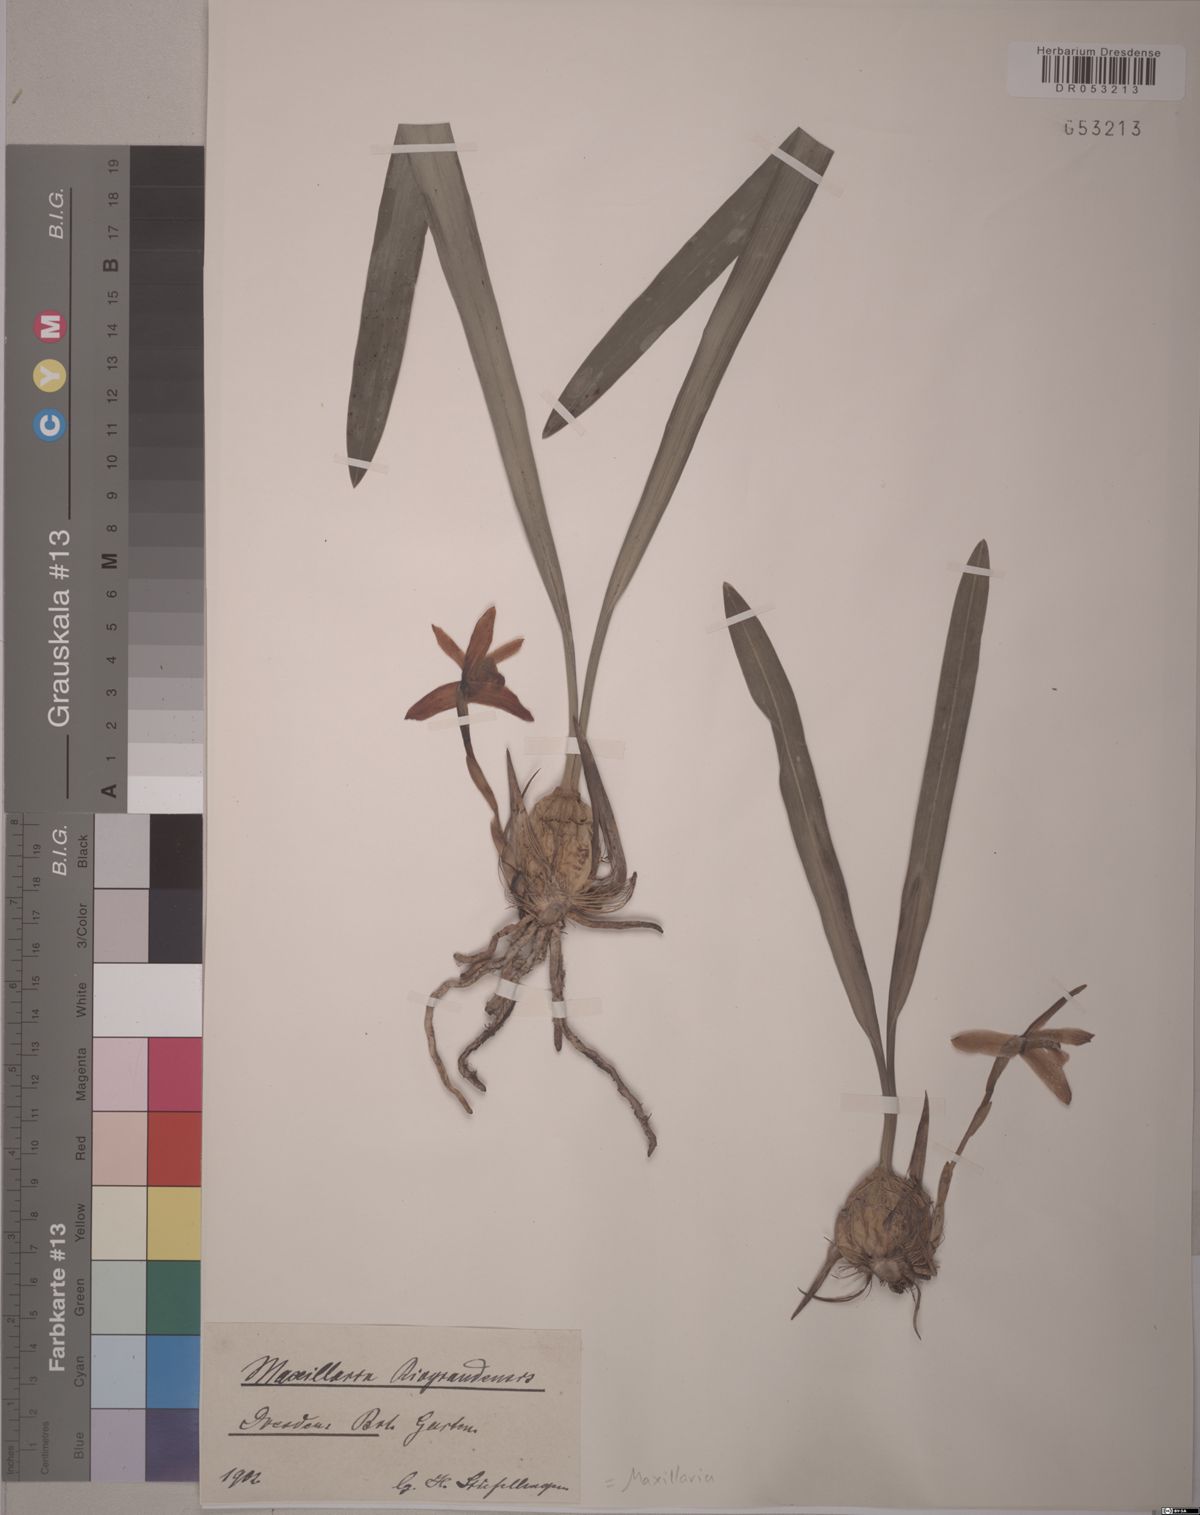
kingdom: Plantae
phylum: Tracheophyta
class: Liliopsida
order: Asparagales
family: Orchidaceae
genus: Maxillaria
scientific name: Maxillaria
